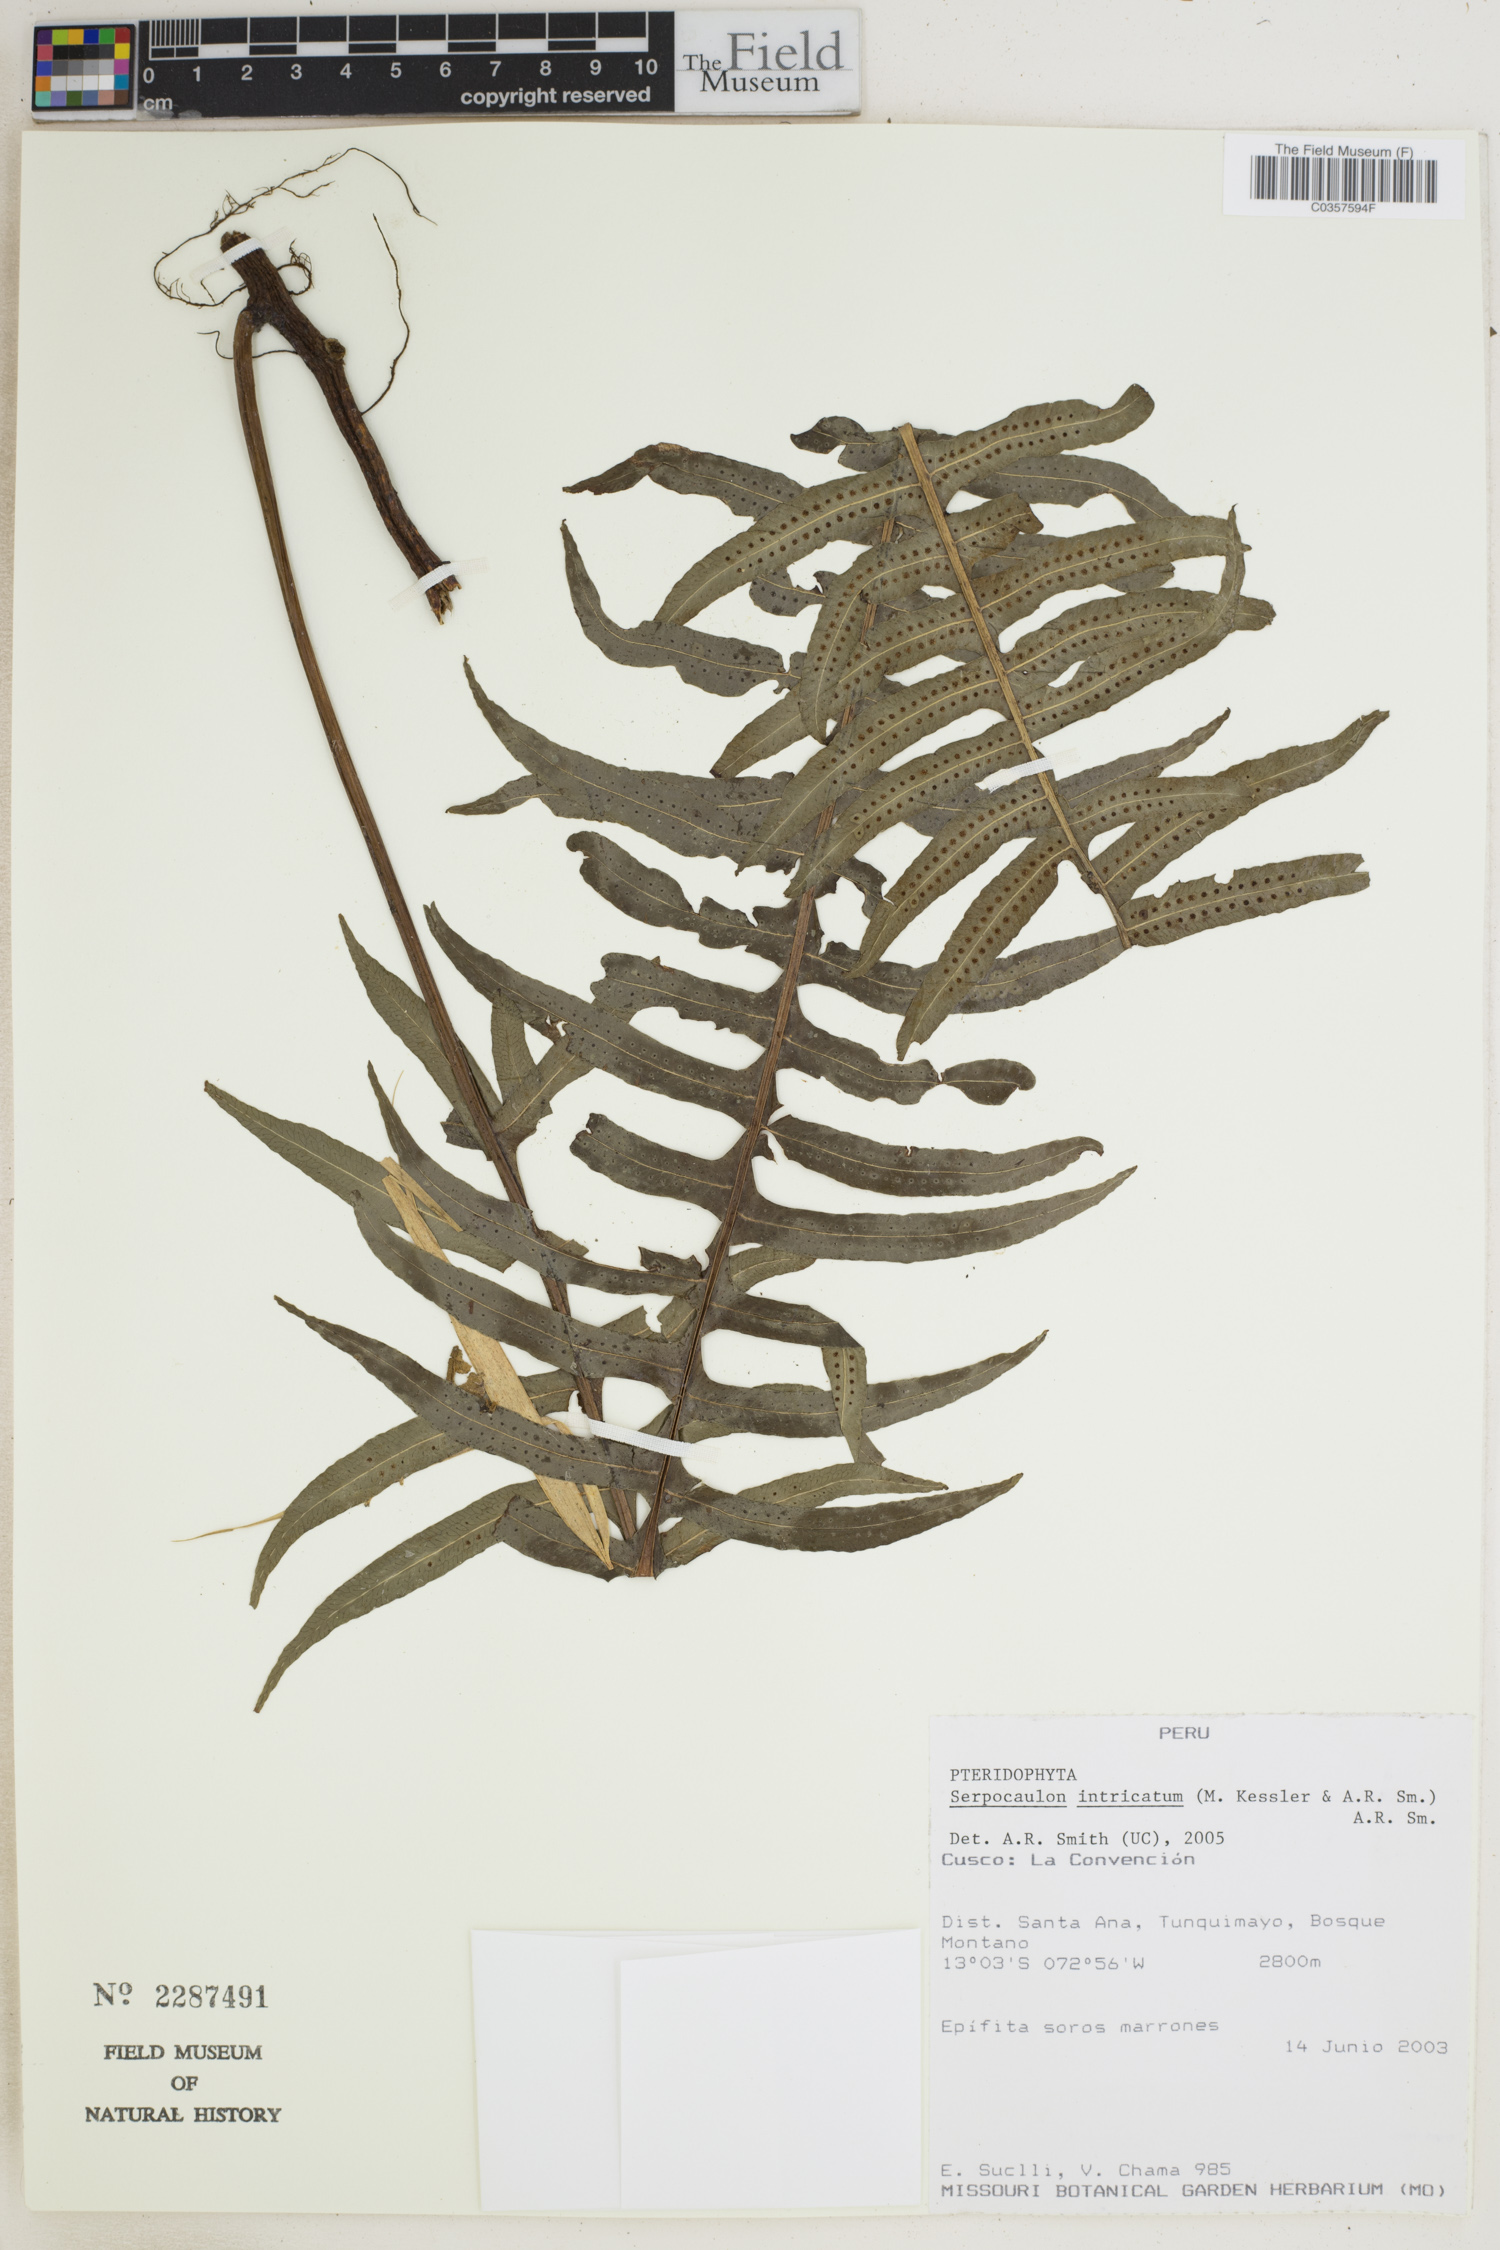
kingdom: Plantae
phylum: Tracheophyta
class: Polypodiopsida
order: Polypodiales
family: Polypodiaceae
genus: Serpocaulon
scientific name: Serpocaulon intricatum
